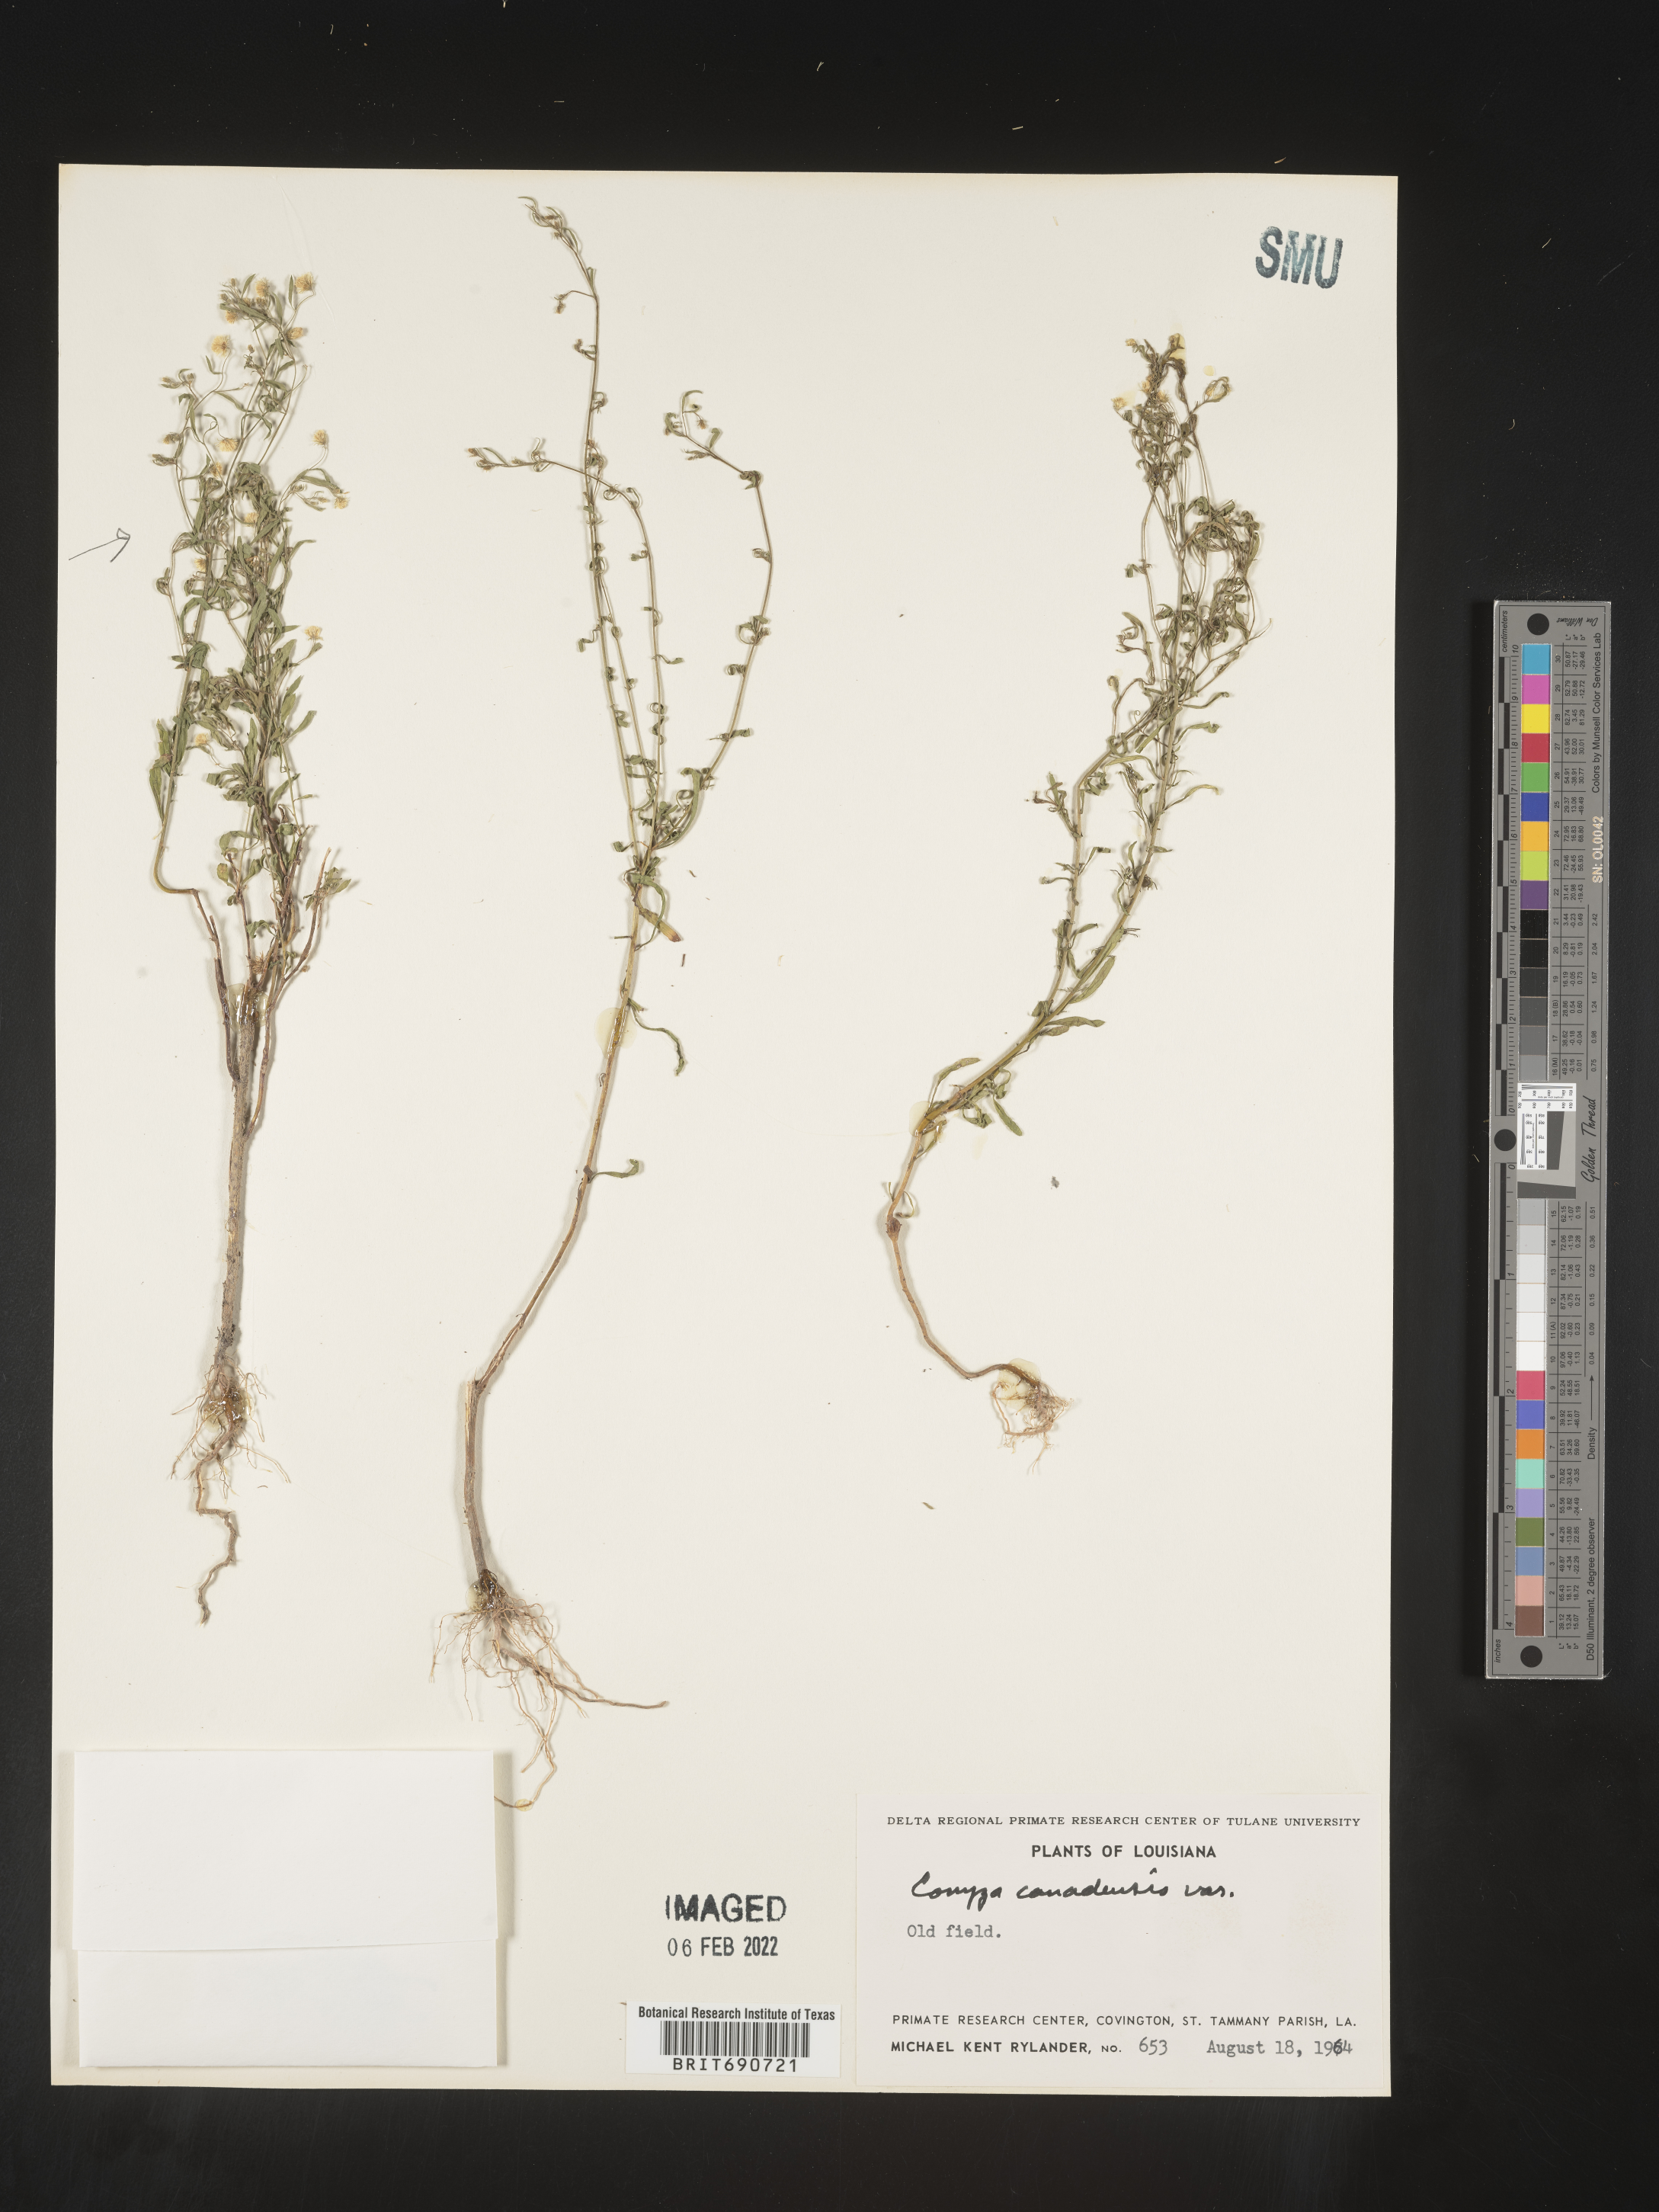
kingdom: Plantae
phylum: Tracheophyta
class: Magnoliopsida
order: Asterales
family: Asteraceae
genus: Erigeron
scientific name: Erigeron canadensis
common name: Canadian fleabane
